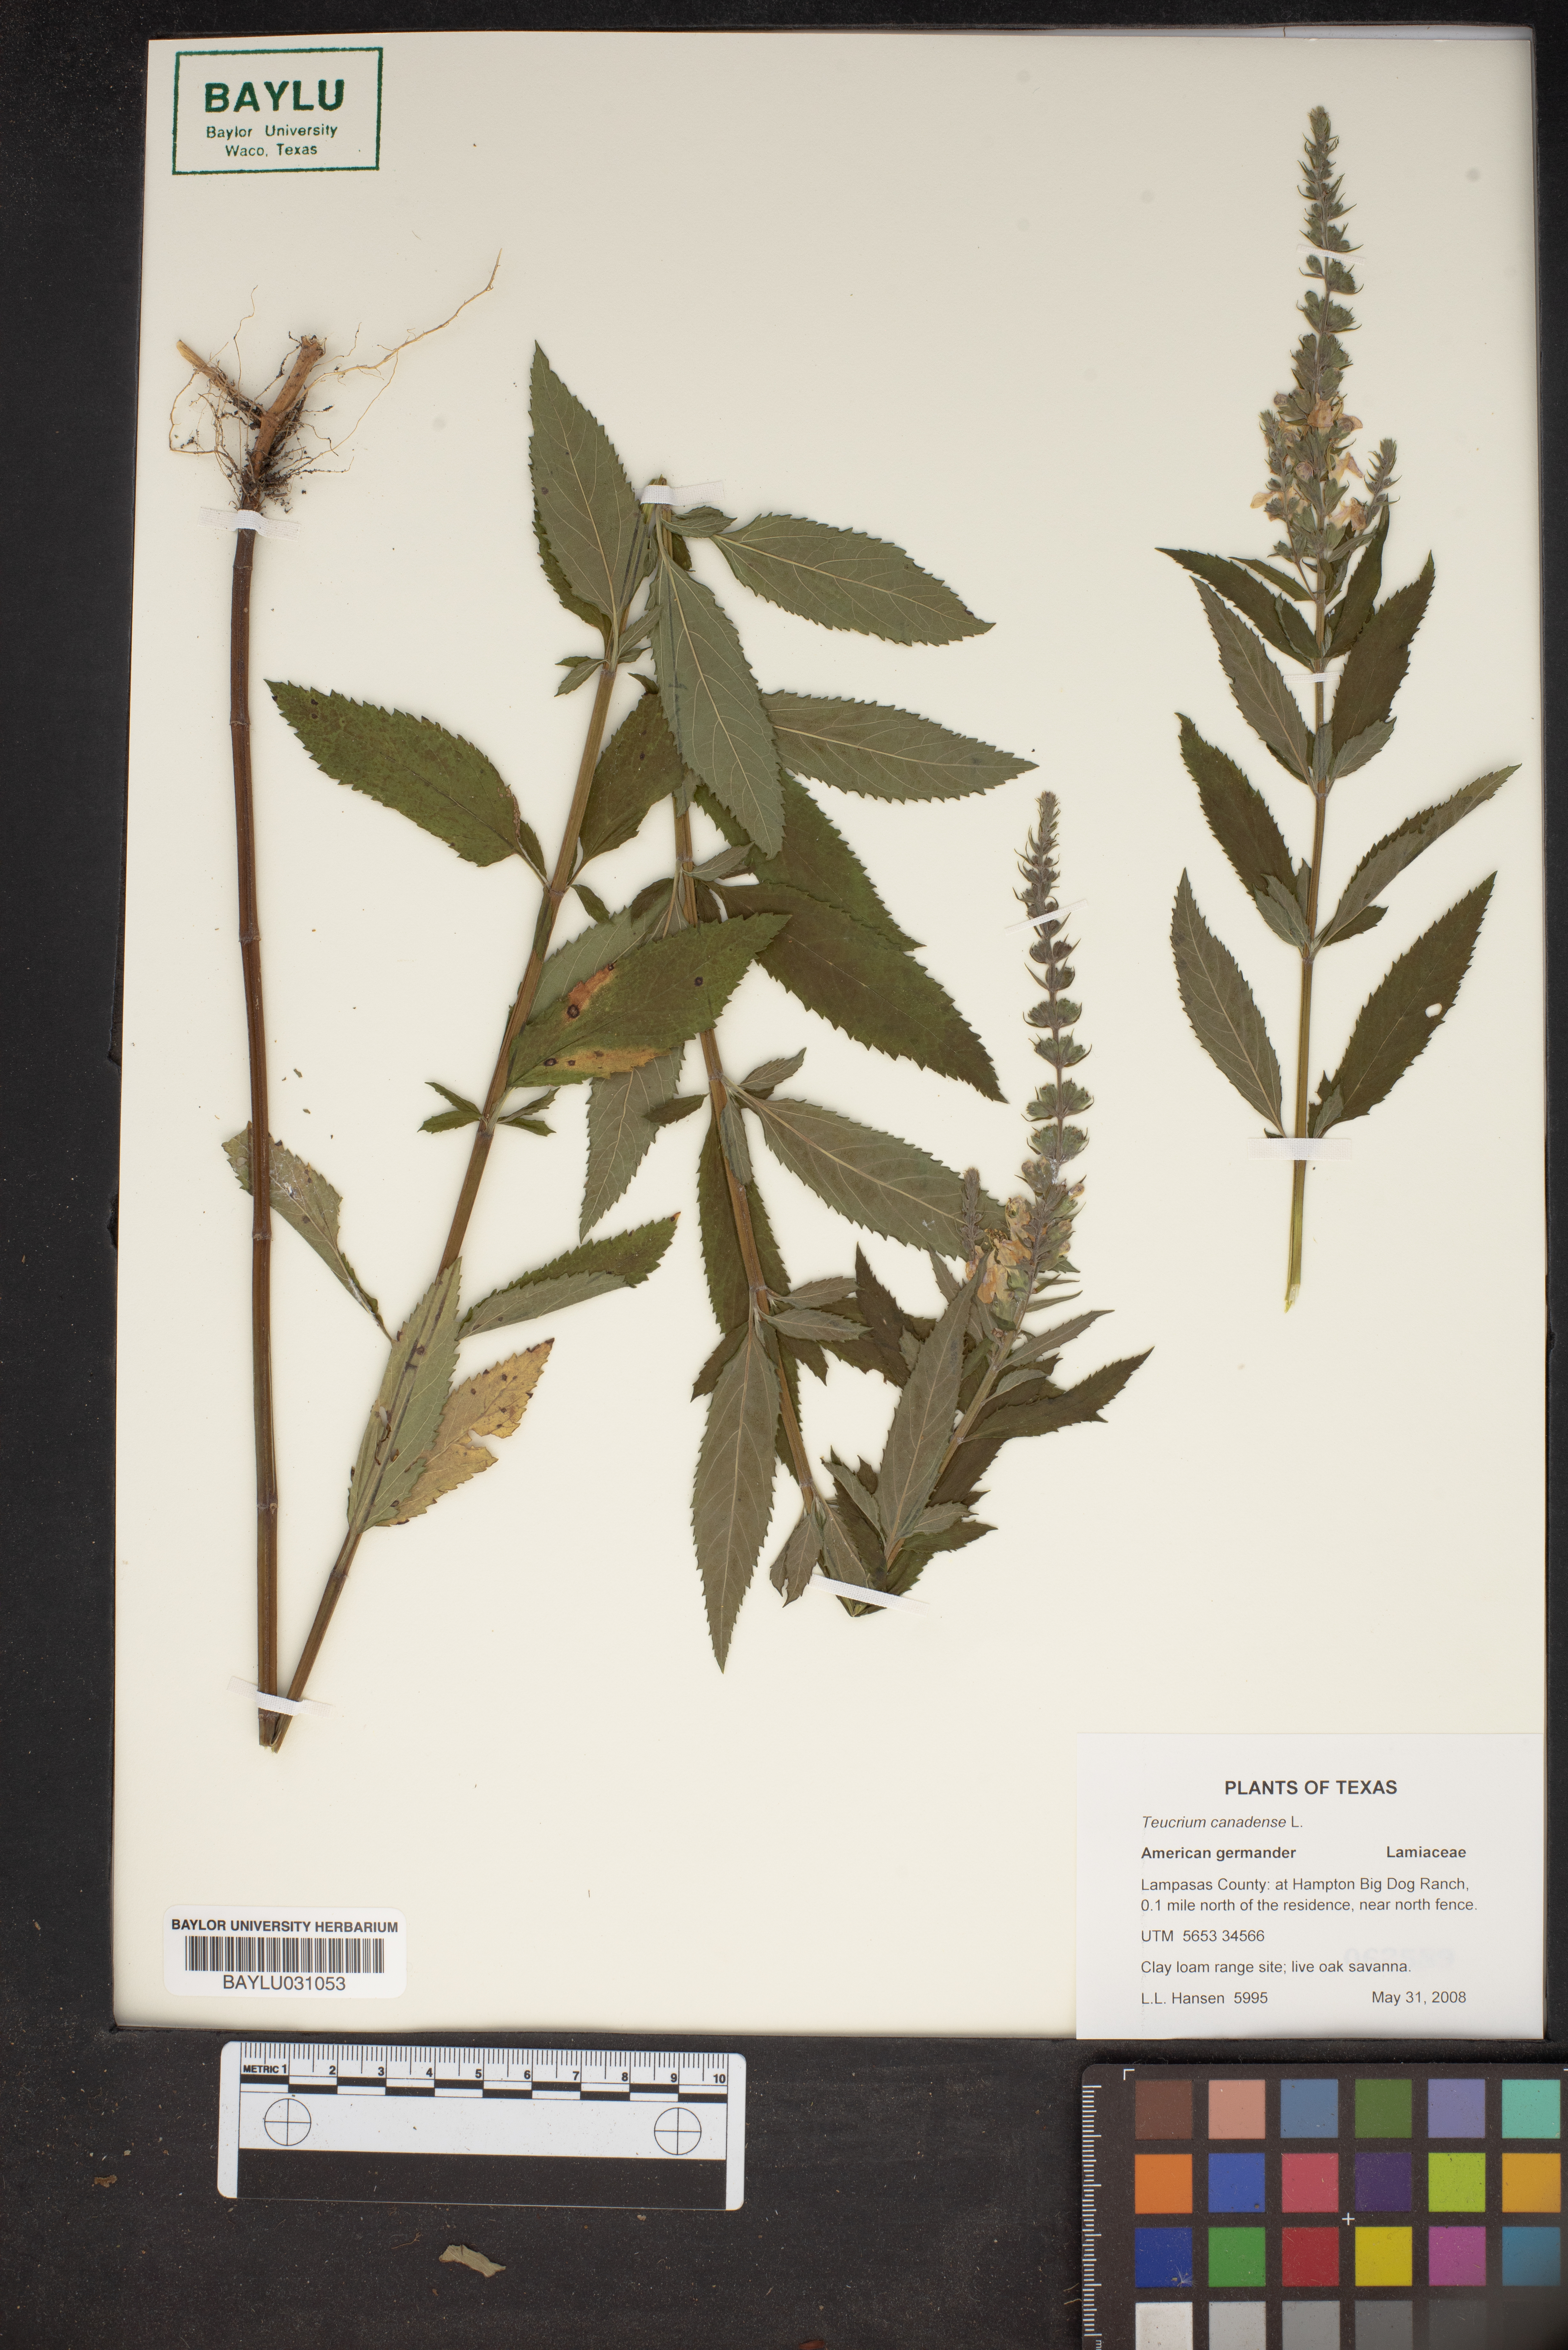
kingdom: Plantae
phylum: Tracheophyta
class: Magnoliopsida
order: Lamiales
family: Lamiaceae
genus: Teucrium
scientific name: Teucrium canadense
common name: American germander
